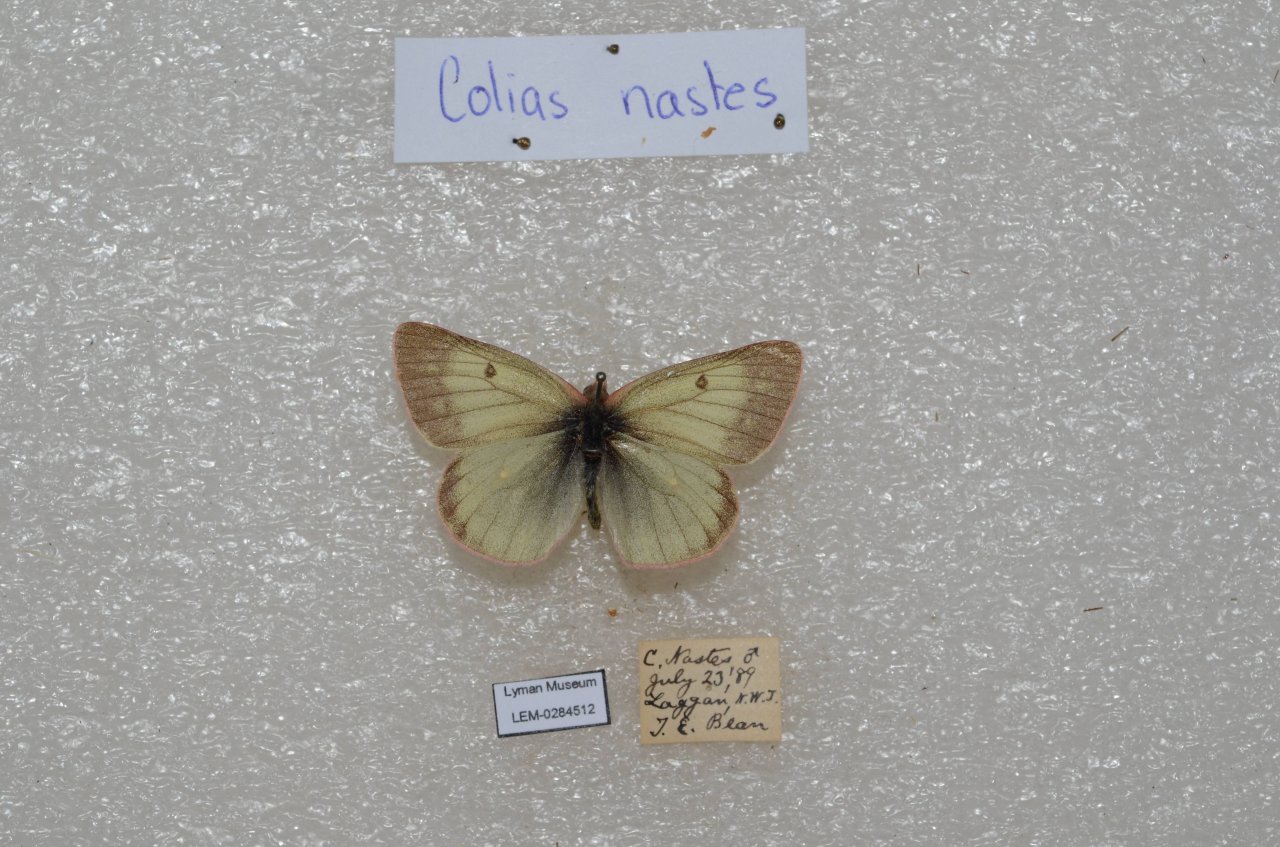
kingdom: Animalia
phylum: Arthropoda
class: Insecta
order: Lepidoptera
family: Pieridae
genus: Colias
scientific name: Colias nastes
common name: Labrador Sulphur
